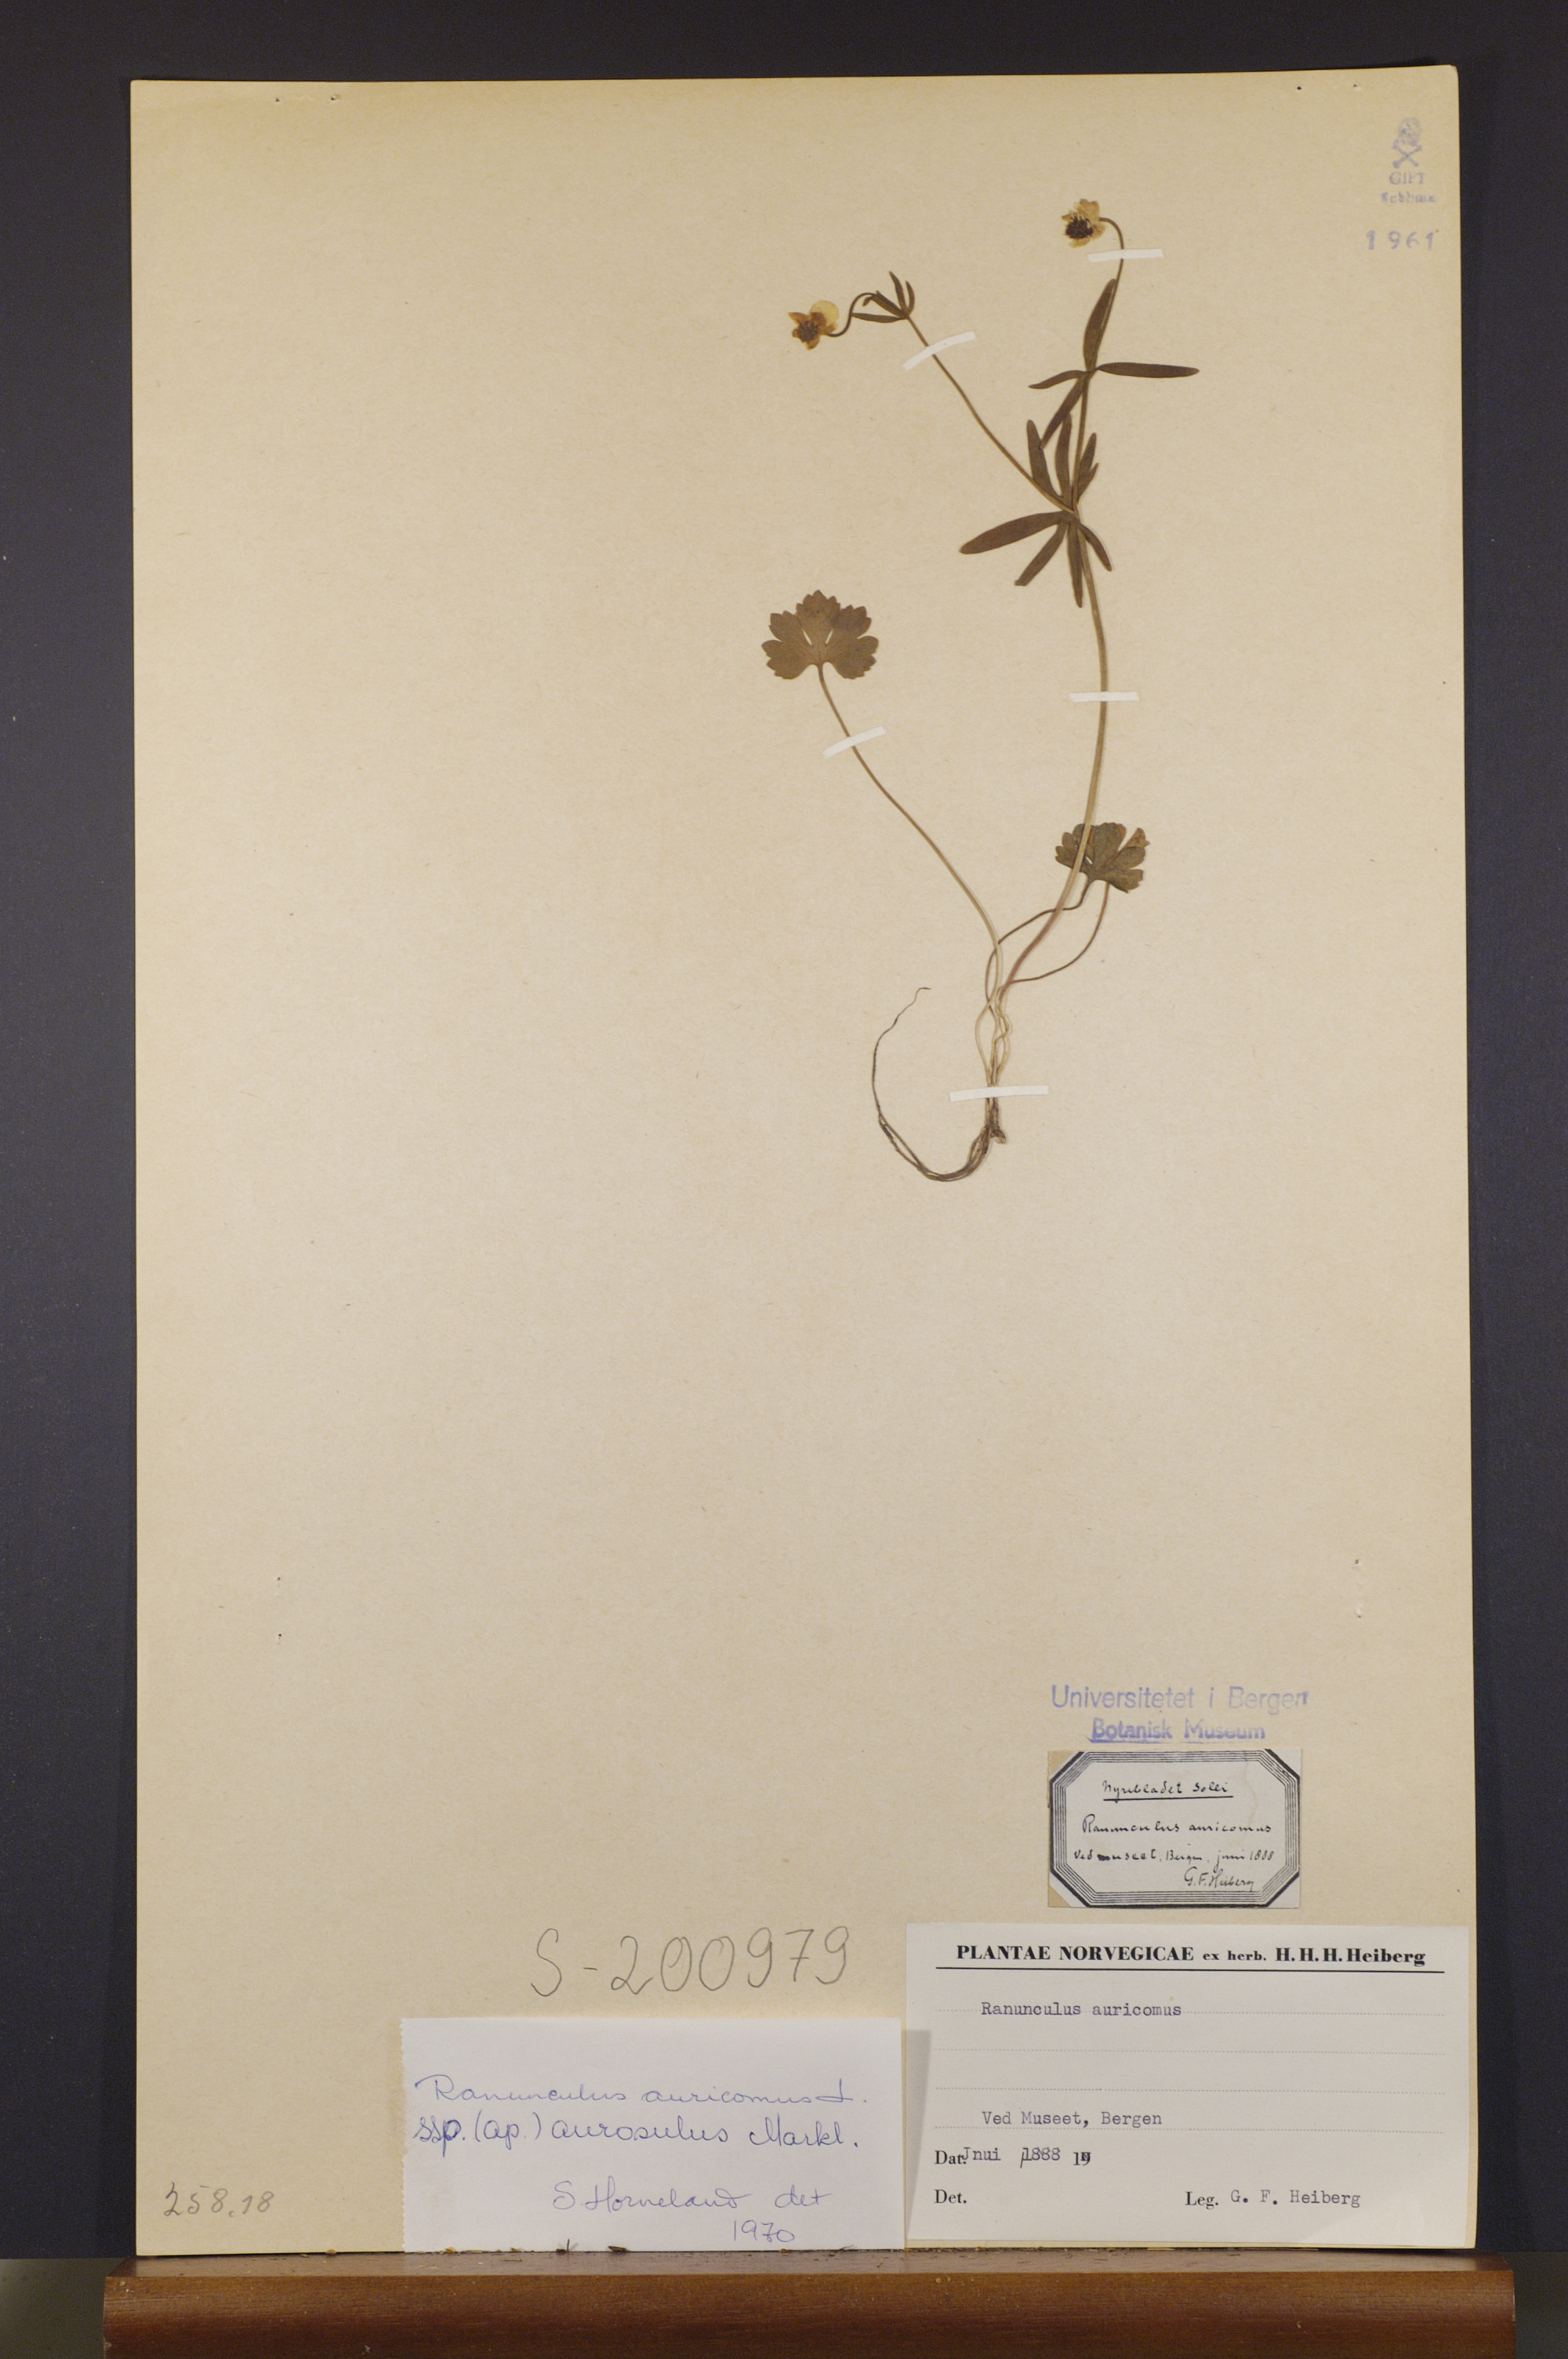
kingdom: Plantae
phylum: Tracheophyta
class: Magnoliopsida
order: Ranunculales
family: Ranunculaceae
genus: Ranunculus
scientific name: Ranunculus aurosulus
